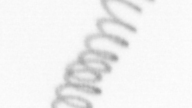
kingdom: Chromista
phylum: Ochrophyta
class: Bacillariophyceae
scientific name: Bacillariophyceae
